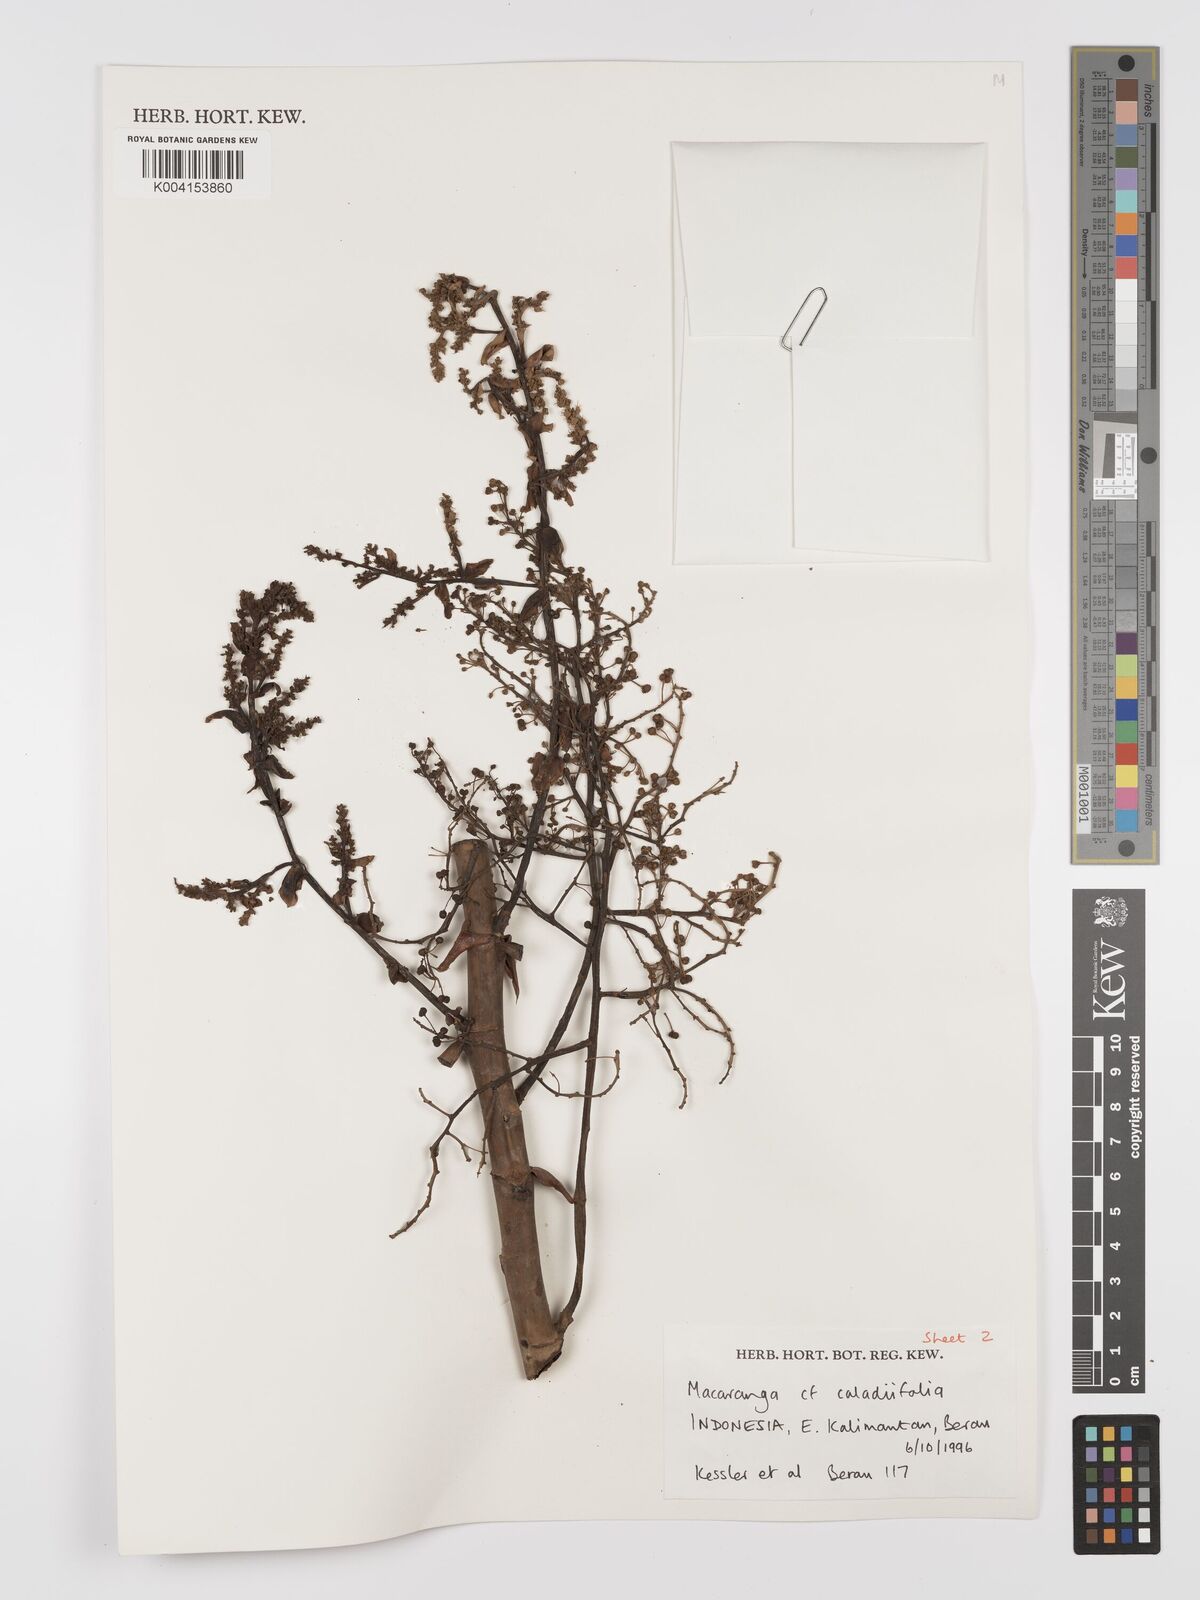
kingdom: Plantae
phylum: Tracheophyta
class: Magnoliopsida
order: Malpighiales
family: Euphorbiaceae
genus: Macaranga
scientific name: Macaranga caladiifolia
